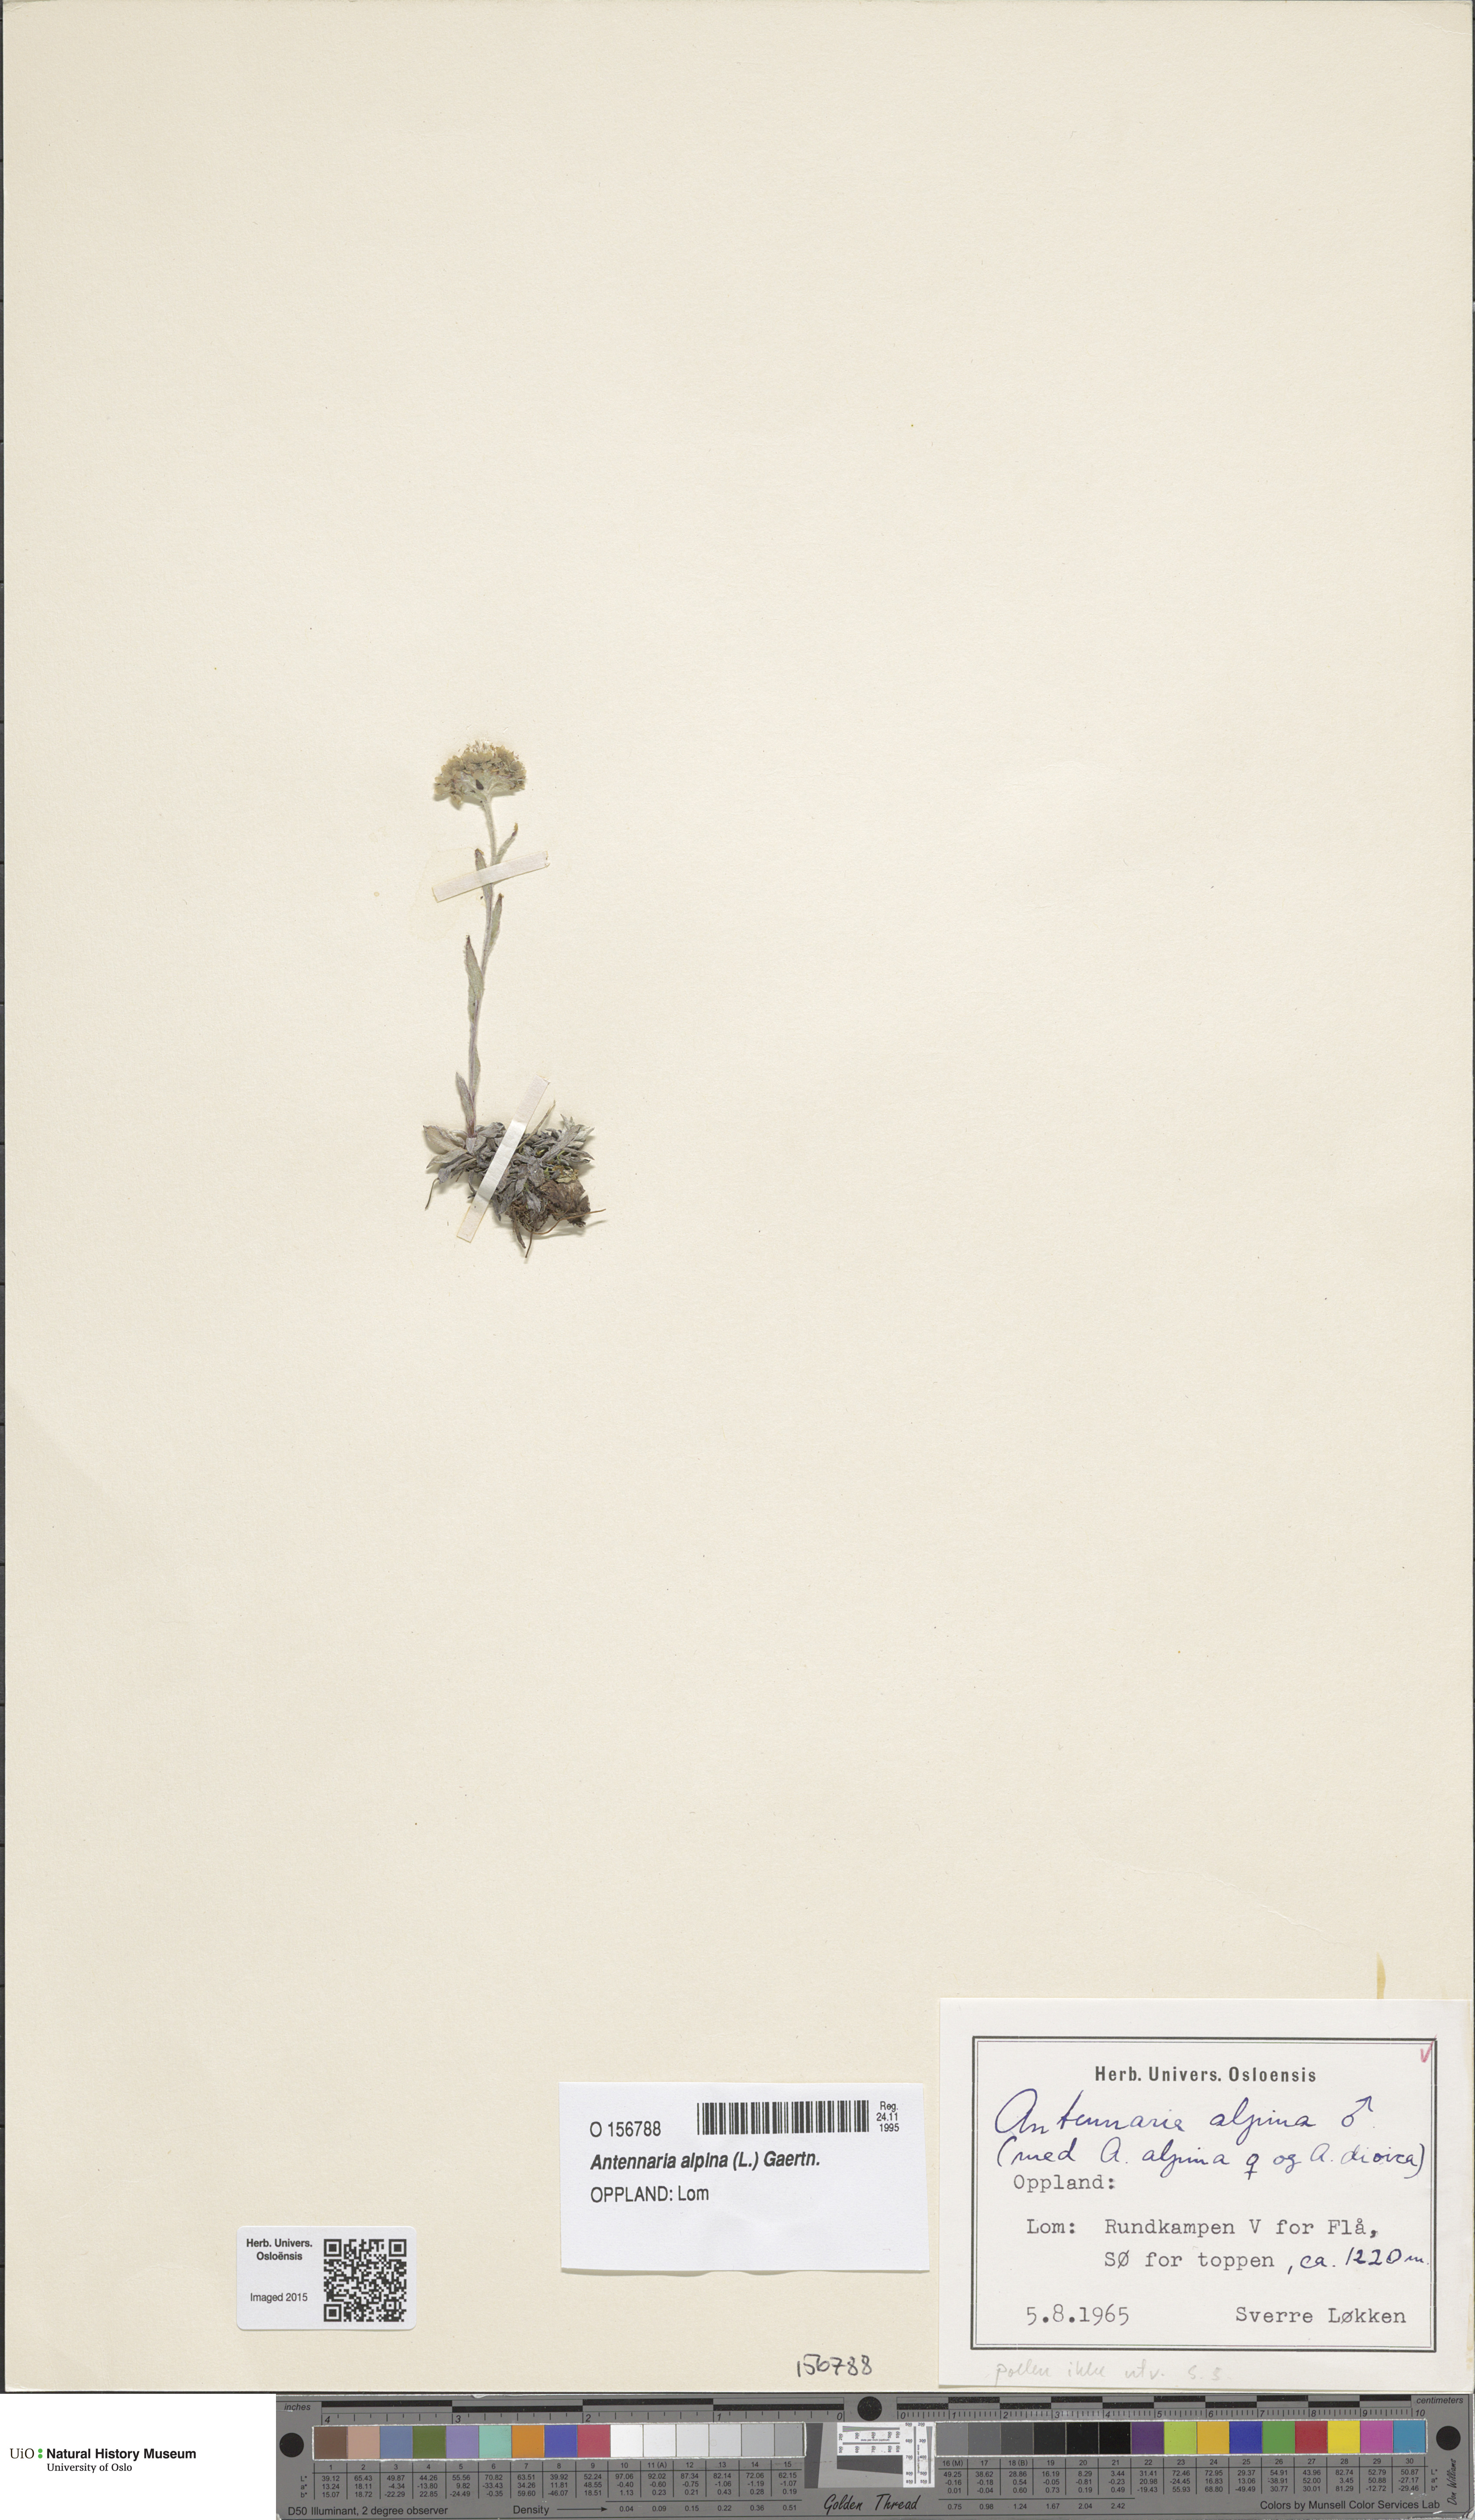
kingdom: Plantae
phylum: Tracheophyta
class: Magnoliopsida
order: Asterales
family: Asteraceae
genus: Antennaria
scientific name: Antennaria alpina
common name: Alpine pussytoes
